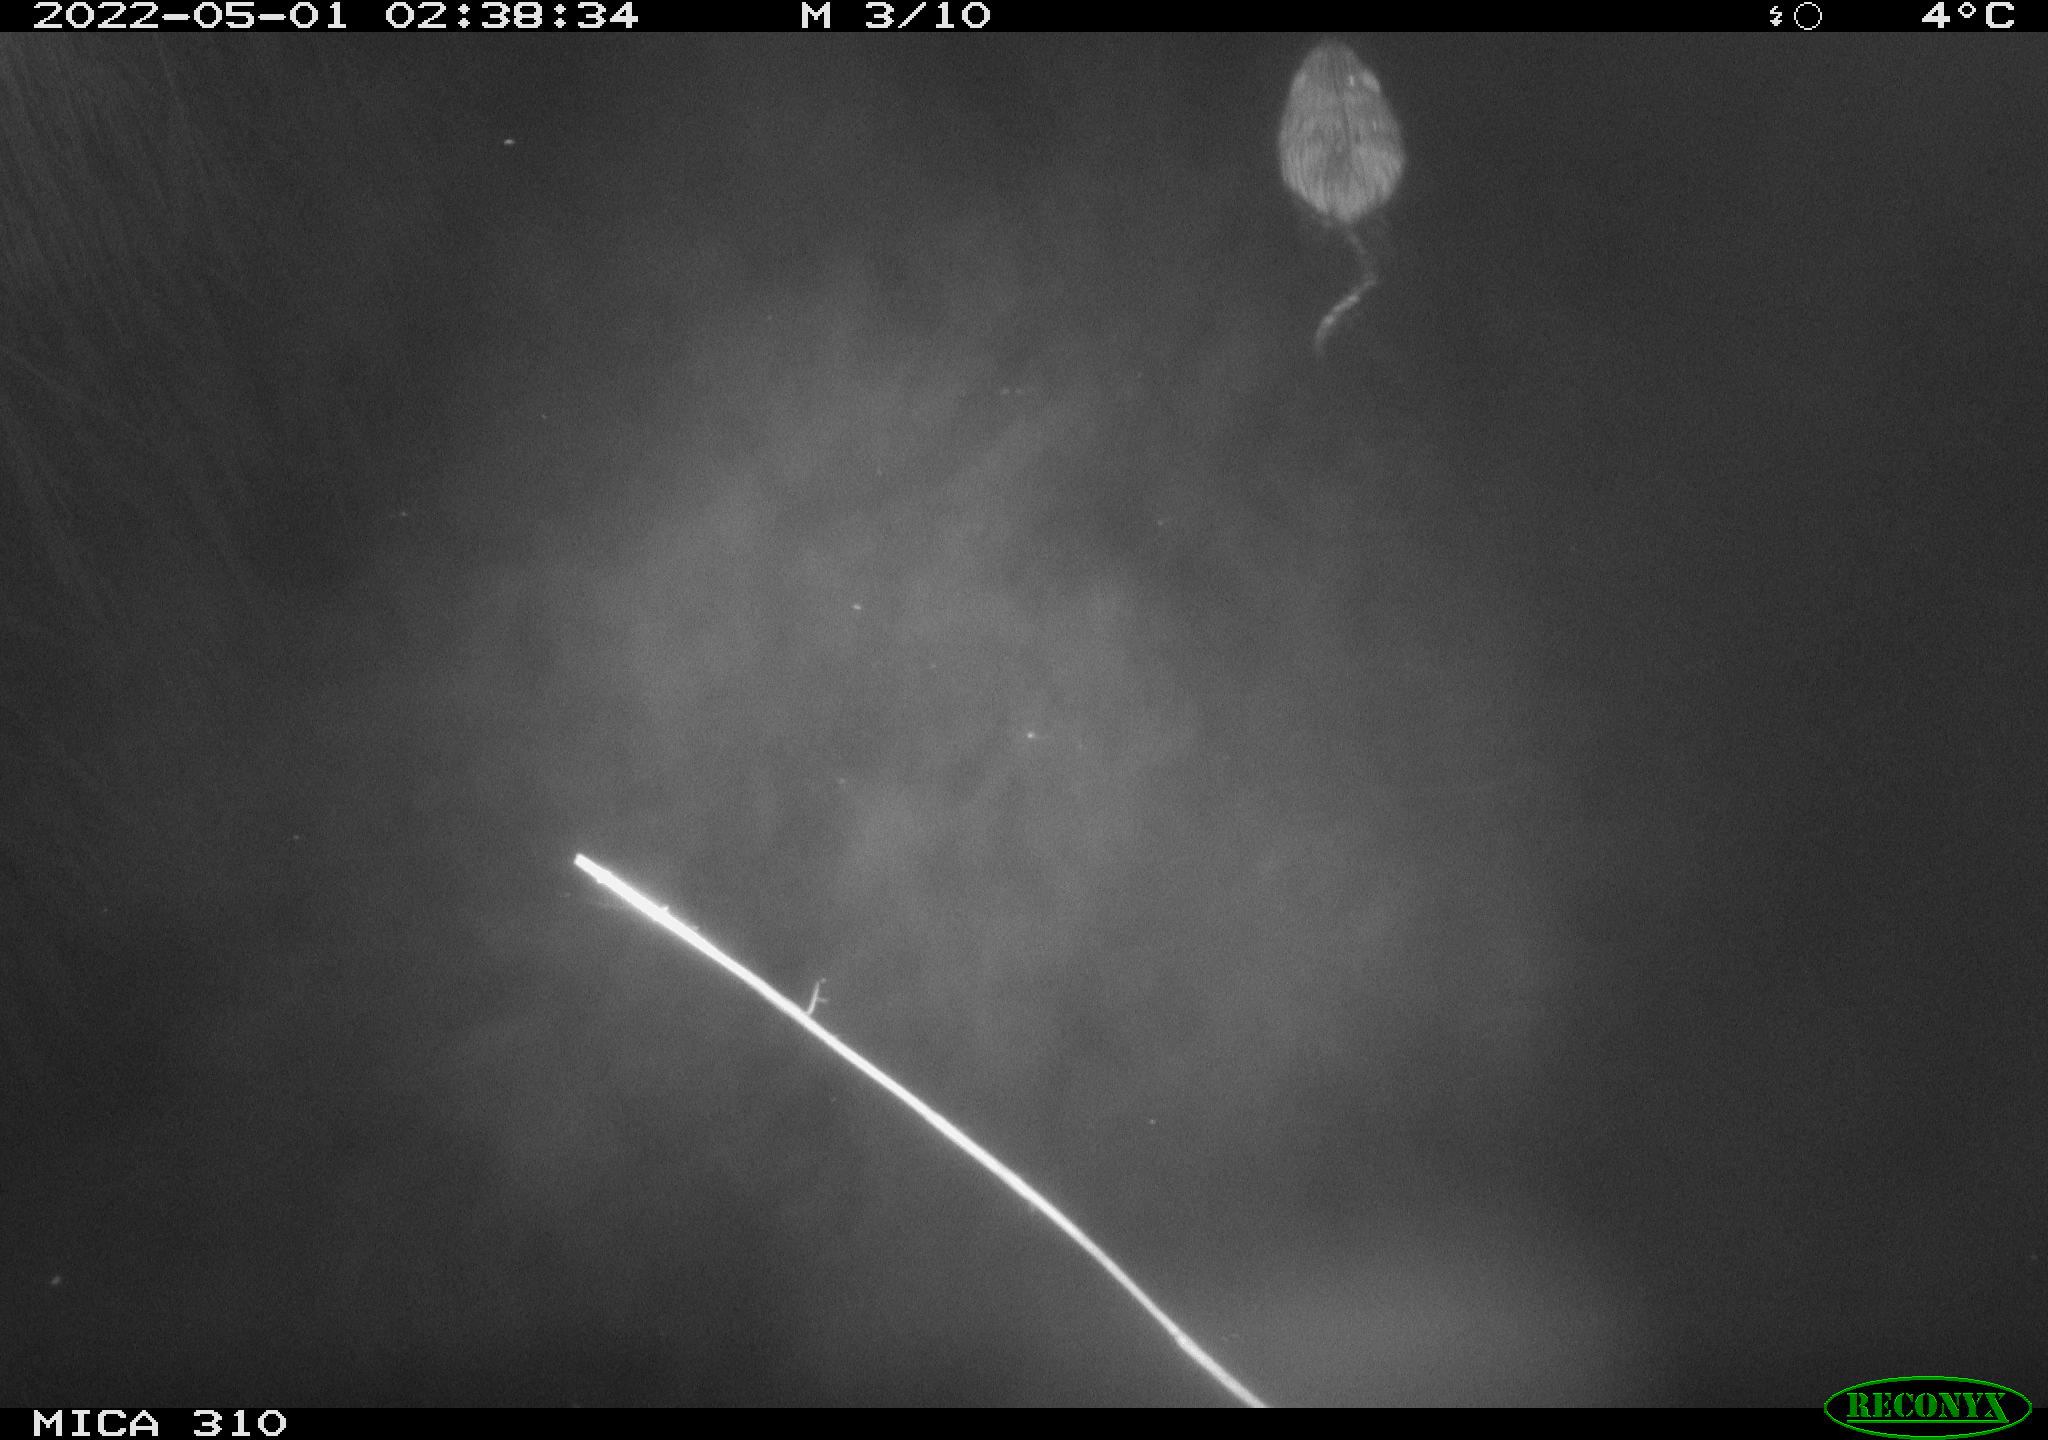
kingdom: Animalia
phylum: Chordata
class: Mammalia
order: Rodentia
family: Cricetidae
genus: Ondatra
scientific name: Ondatra zibethicus
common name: Muskrat
